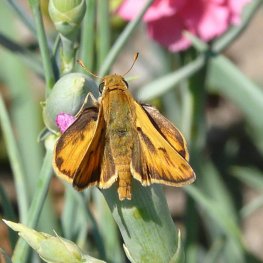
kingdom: Animalia
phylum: Arthropoda
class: Insecta
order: Lepidoptera
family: Hesperiidae
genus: Hylephila
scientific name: Hylephila phyleus
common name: Fiery Skipper
